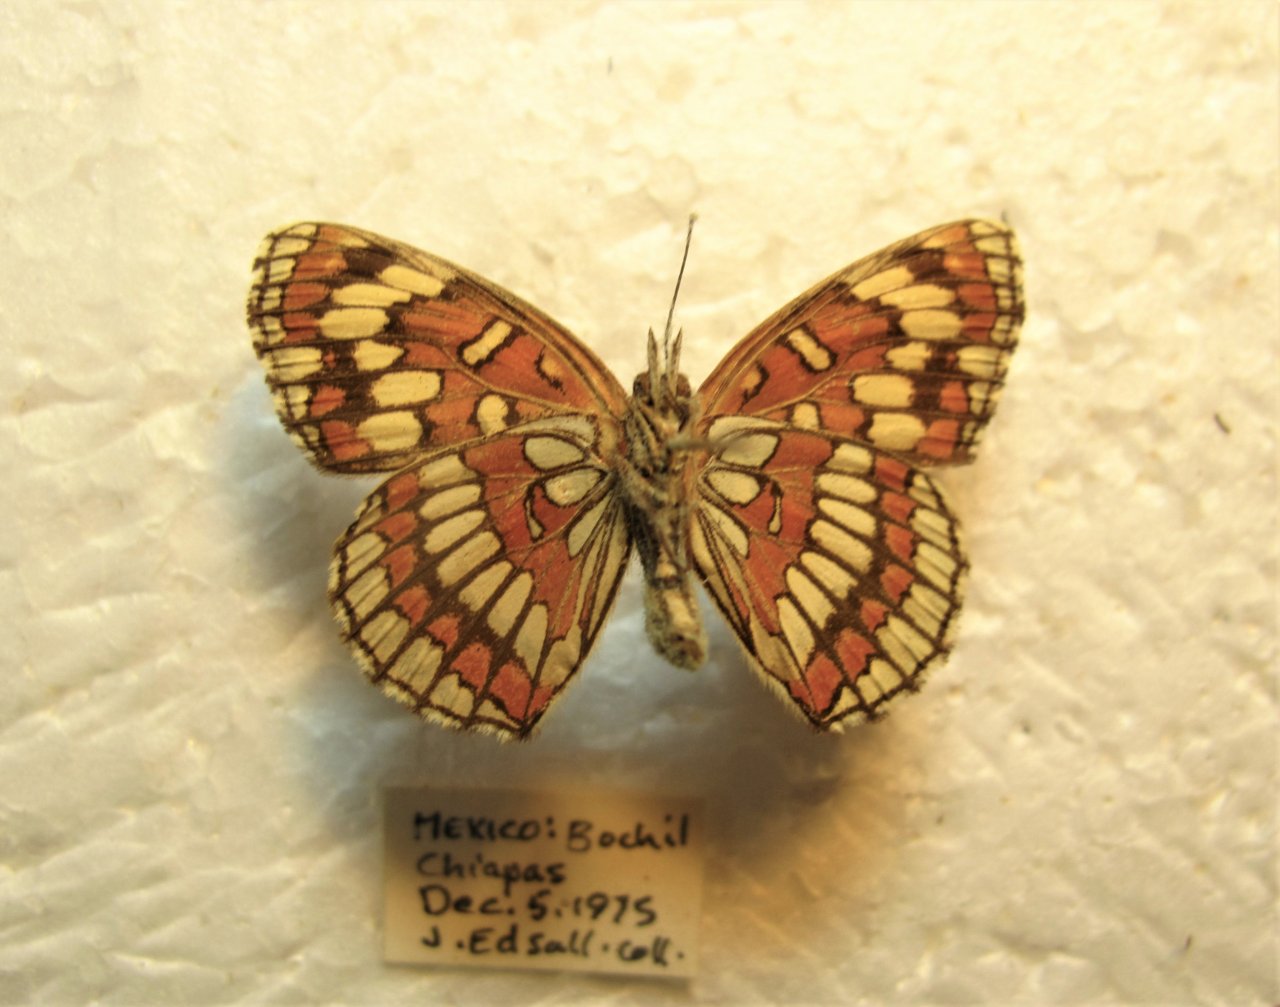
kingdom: Animalia
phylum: Arthropoda
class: Insecta
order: Lepidoptera
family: Nymphalidae
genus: Thessalia
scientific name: Thessalia theona
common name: Theona Checkerspot
